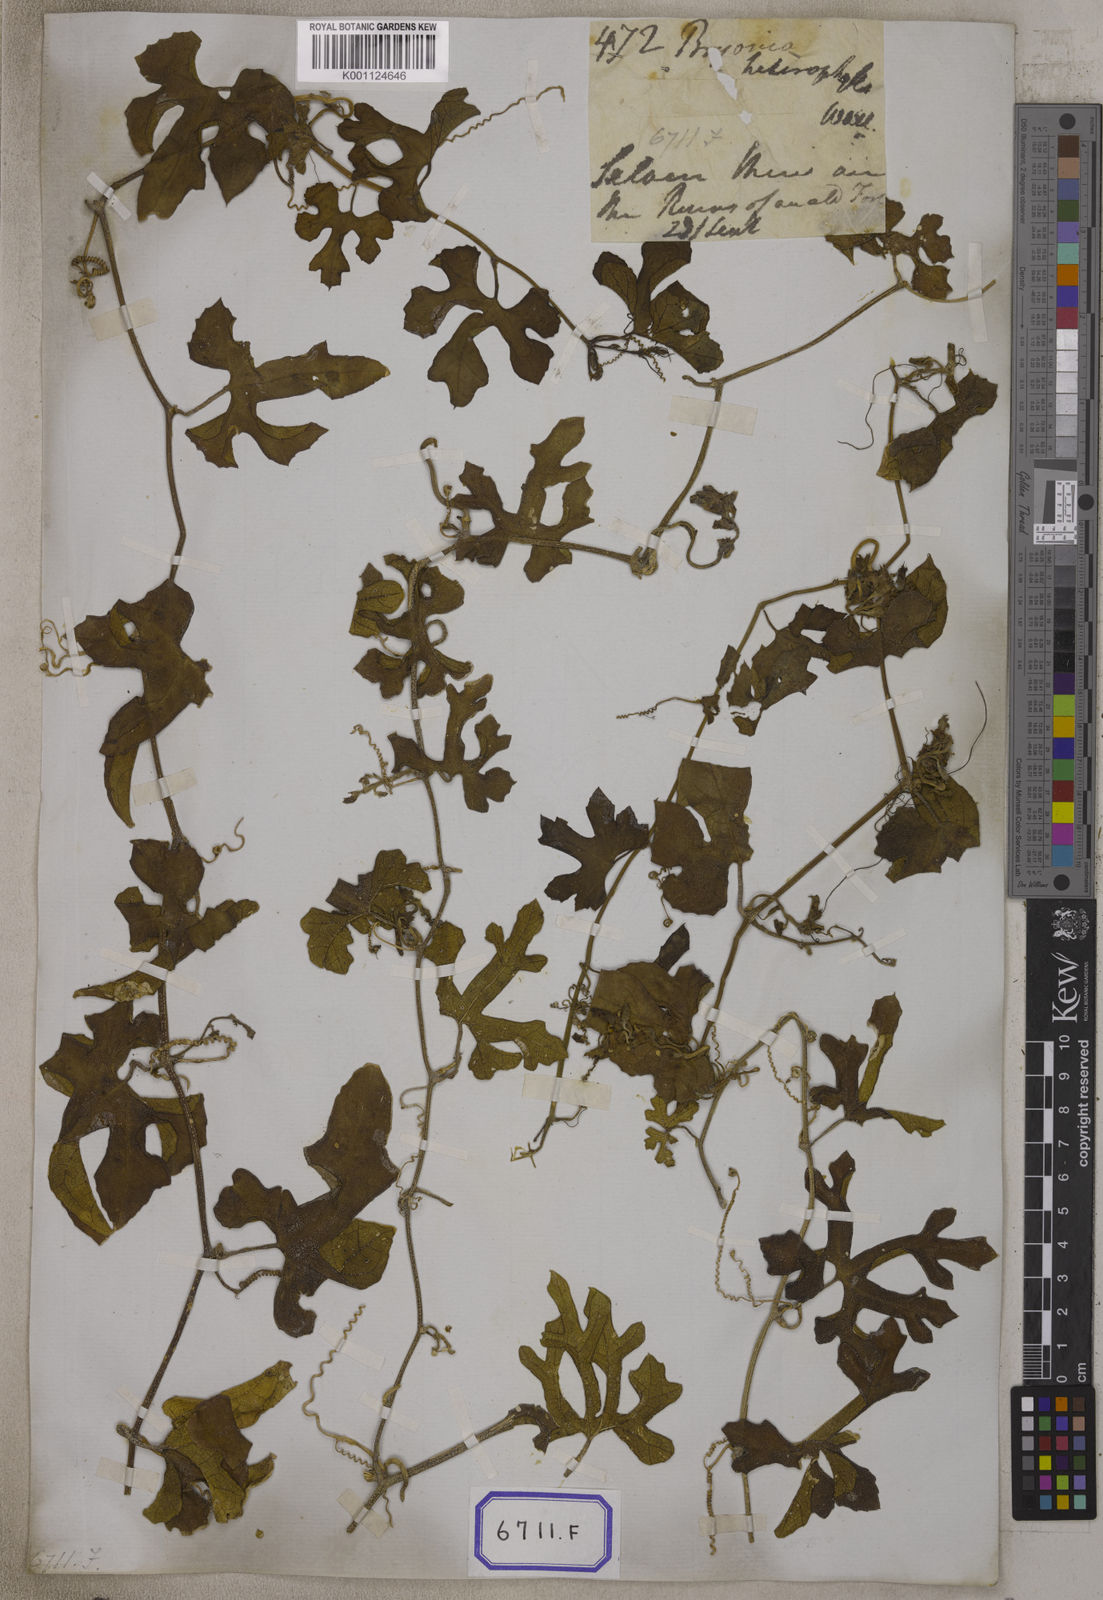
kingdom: Plantae
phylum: Tracheophyta
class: Magnoliopsida
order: Cucurbitales
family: Cucurbitaceae
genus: Bryonia
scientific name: Bryonia
